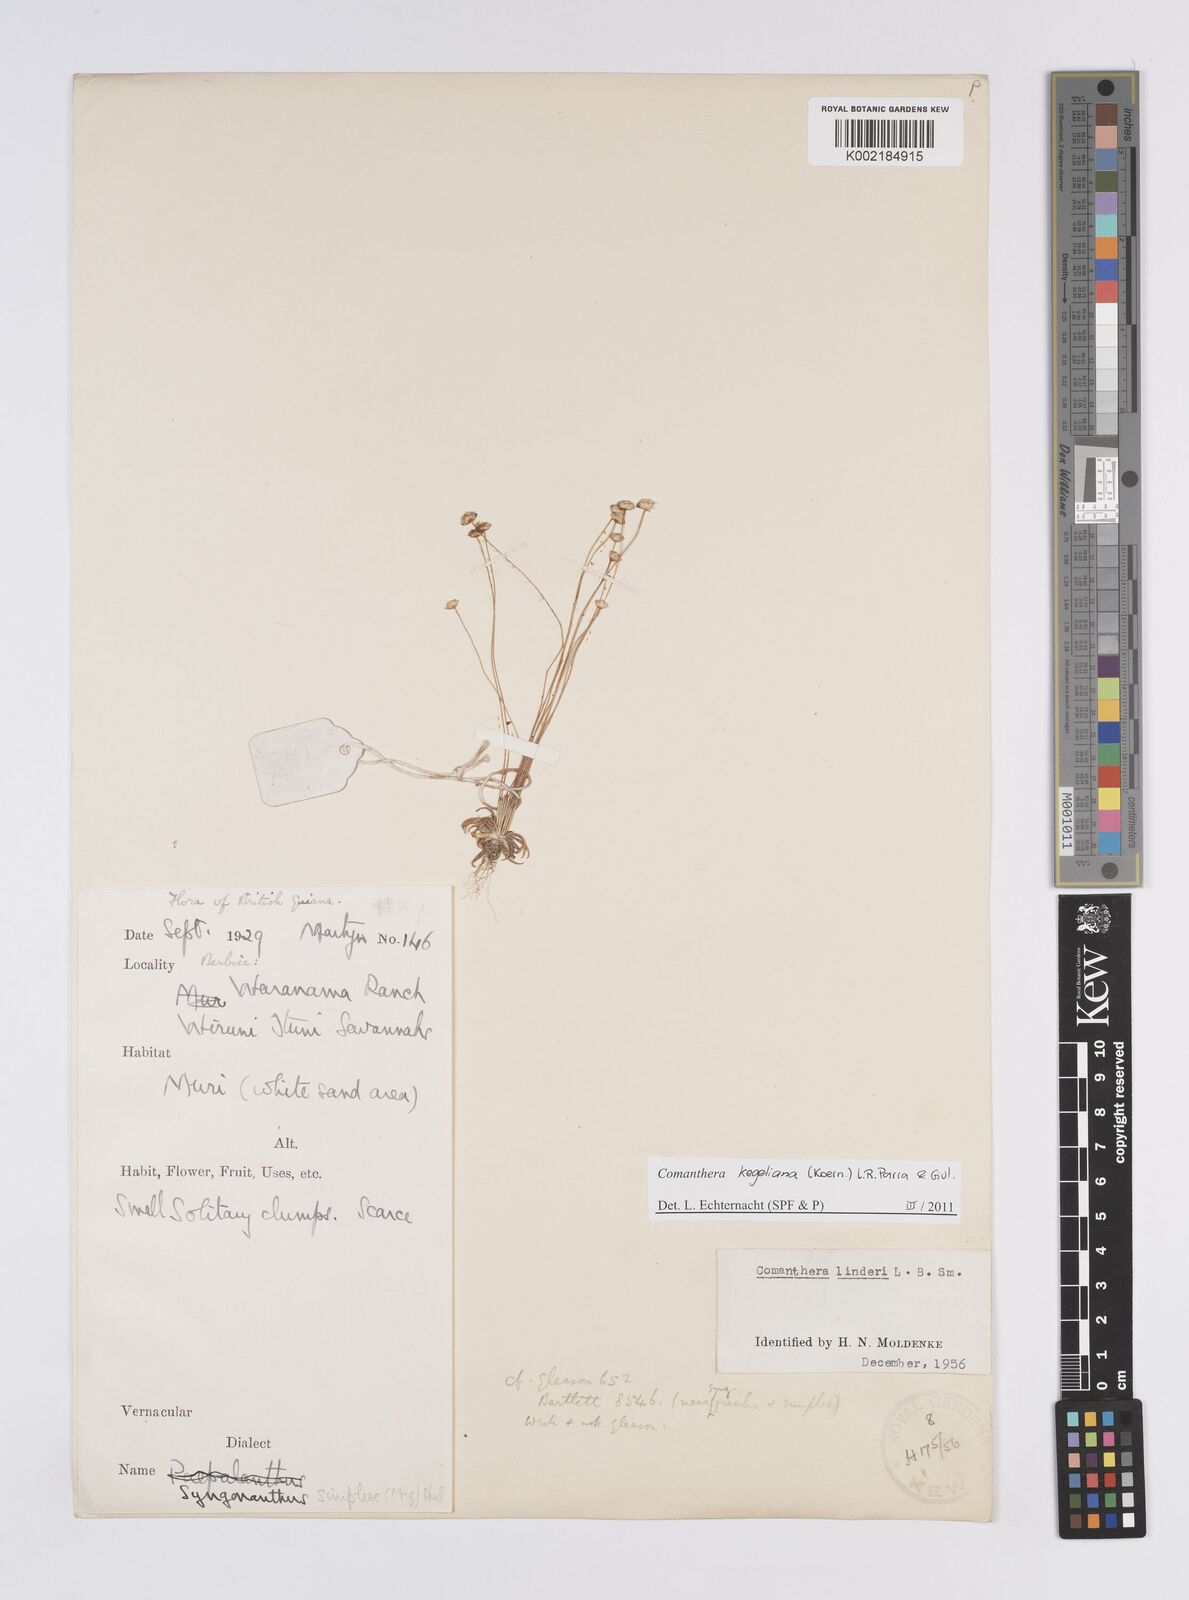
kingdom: Plantae
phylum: Tracheophyta
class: Liliopsida
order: Poales
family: Eriocaulaceae
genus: Comanthera
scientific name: Comanthera kegeliana
